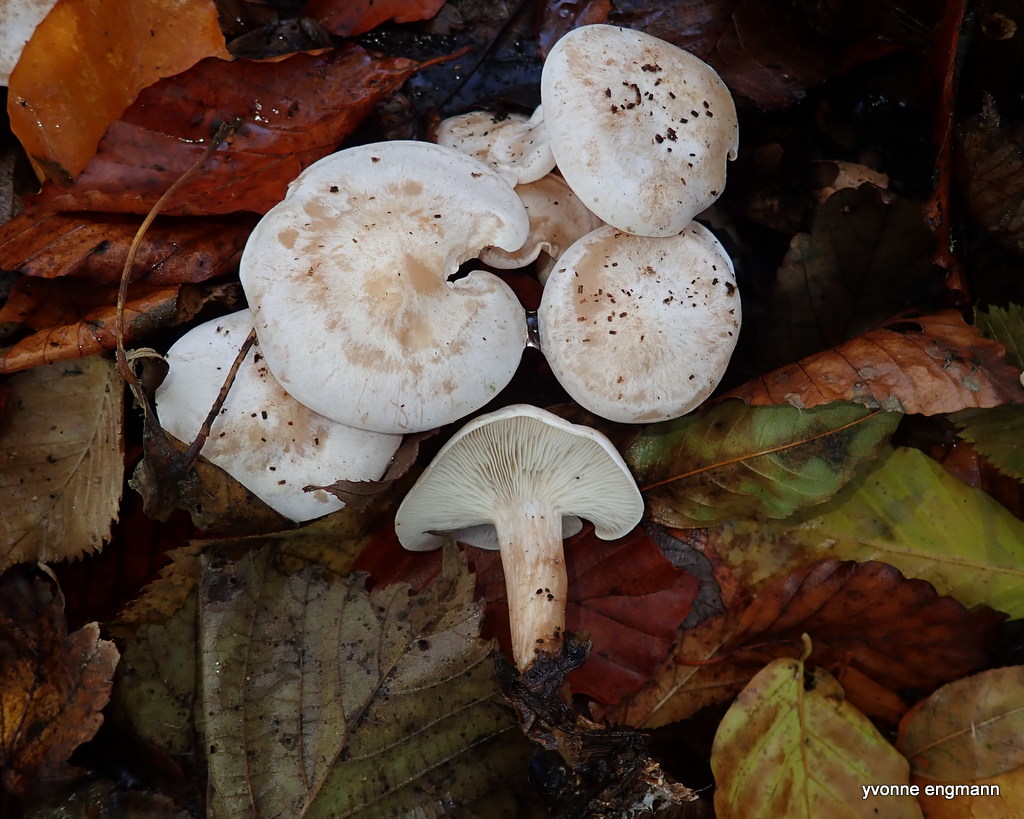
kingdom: Fungi
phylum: Basidiomycota
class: Agaricomycetes
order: Agaricales
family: Tricholomataceae
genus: Clitocybe
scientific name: Clitocybe phyllophila
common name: løv-tragthat
